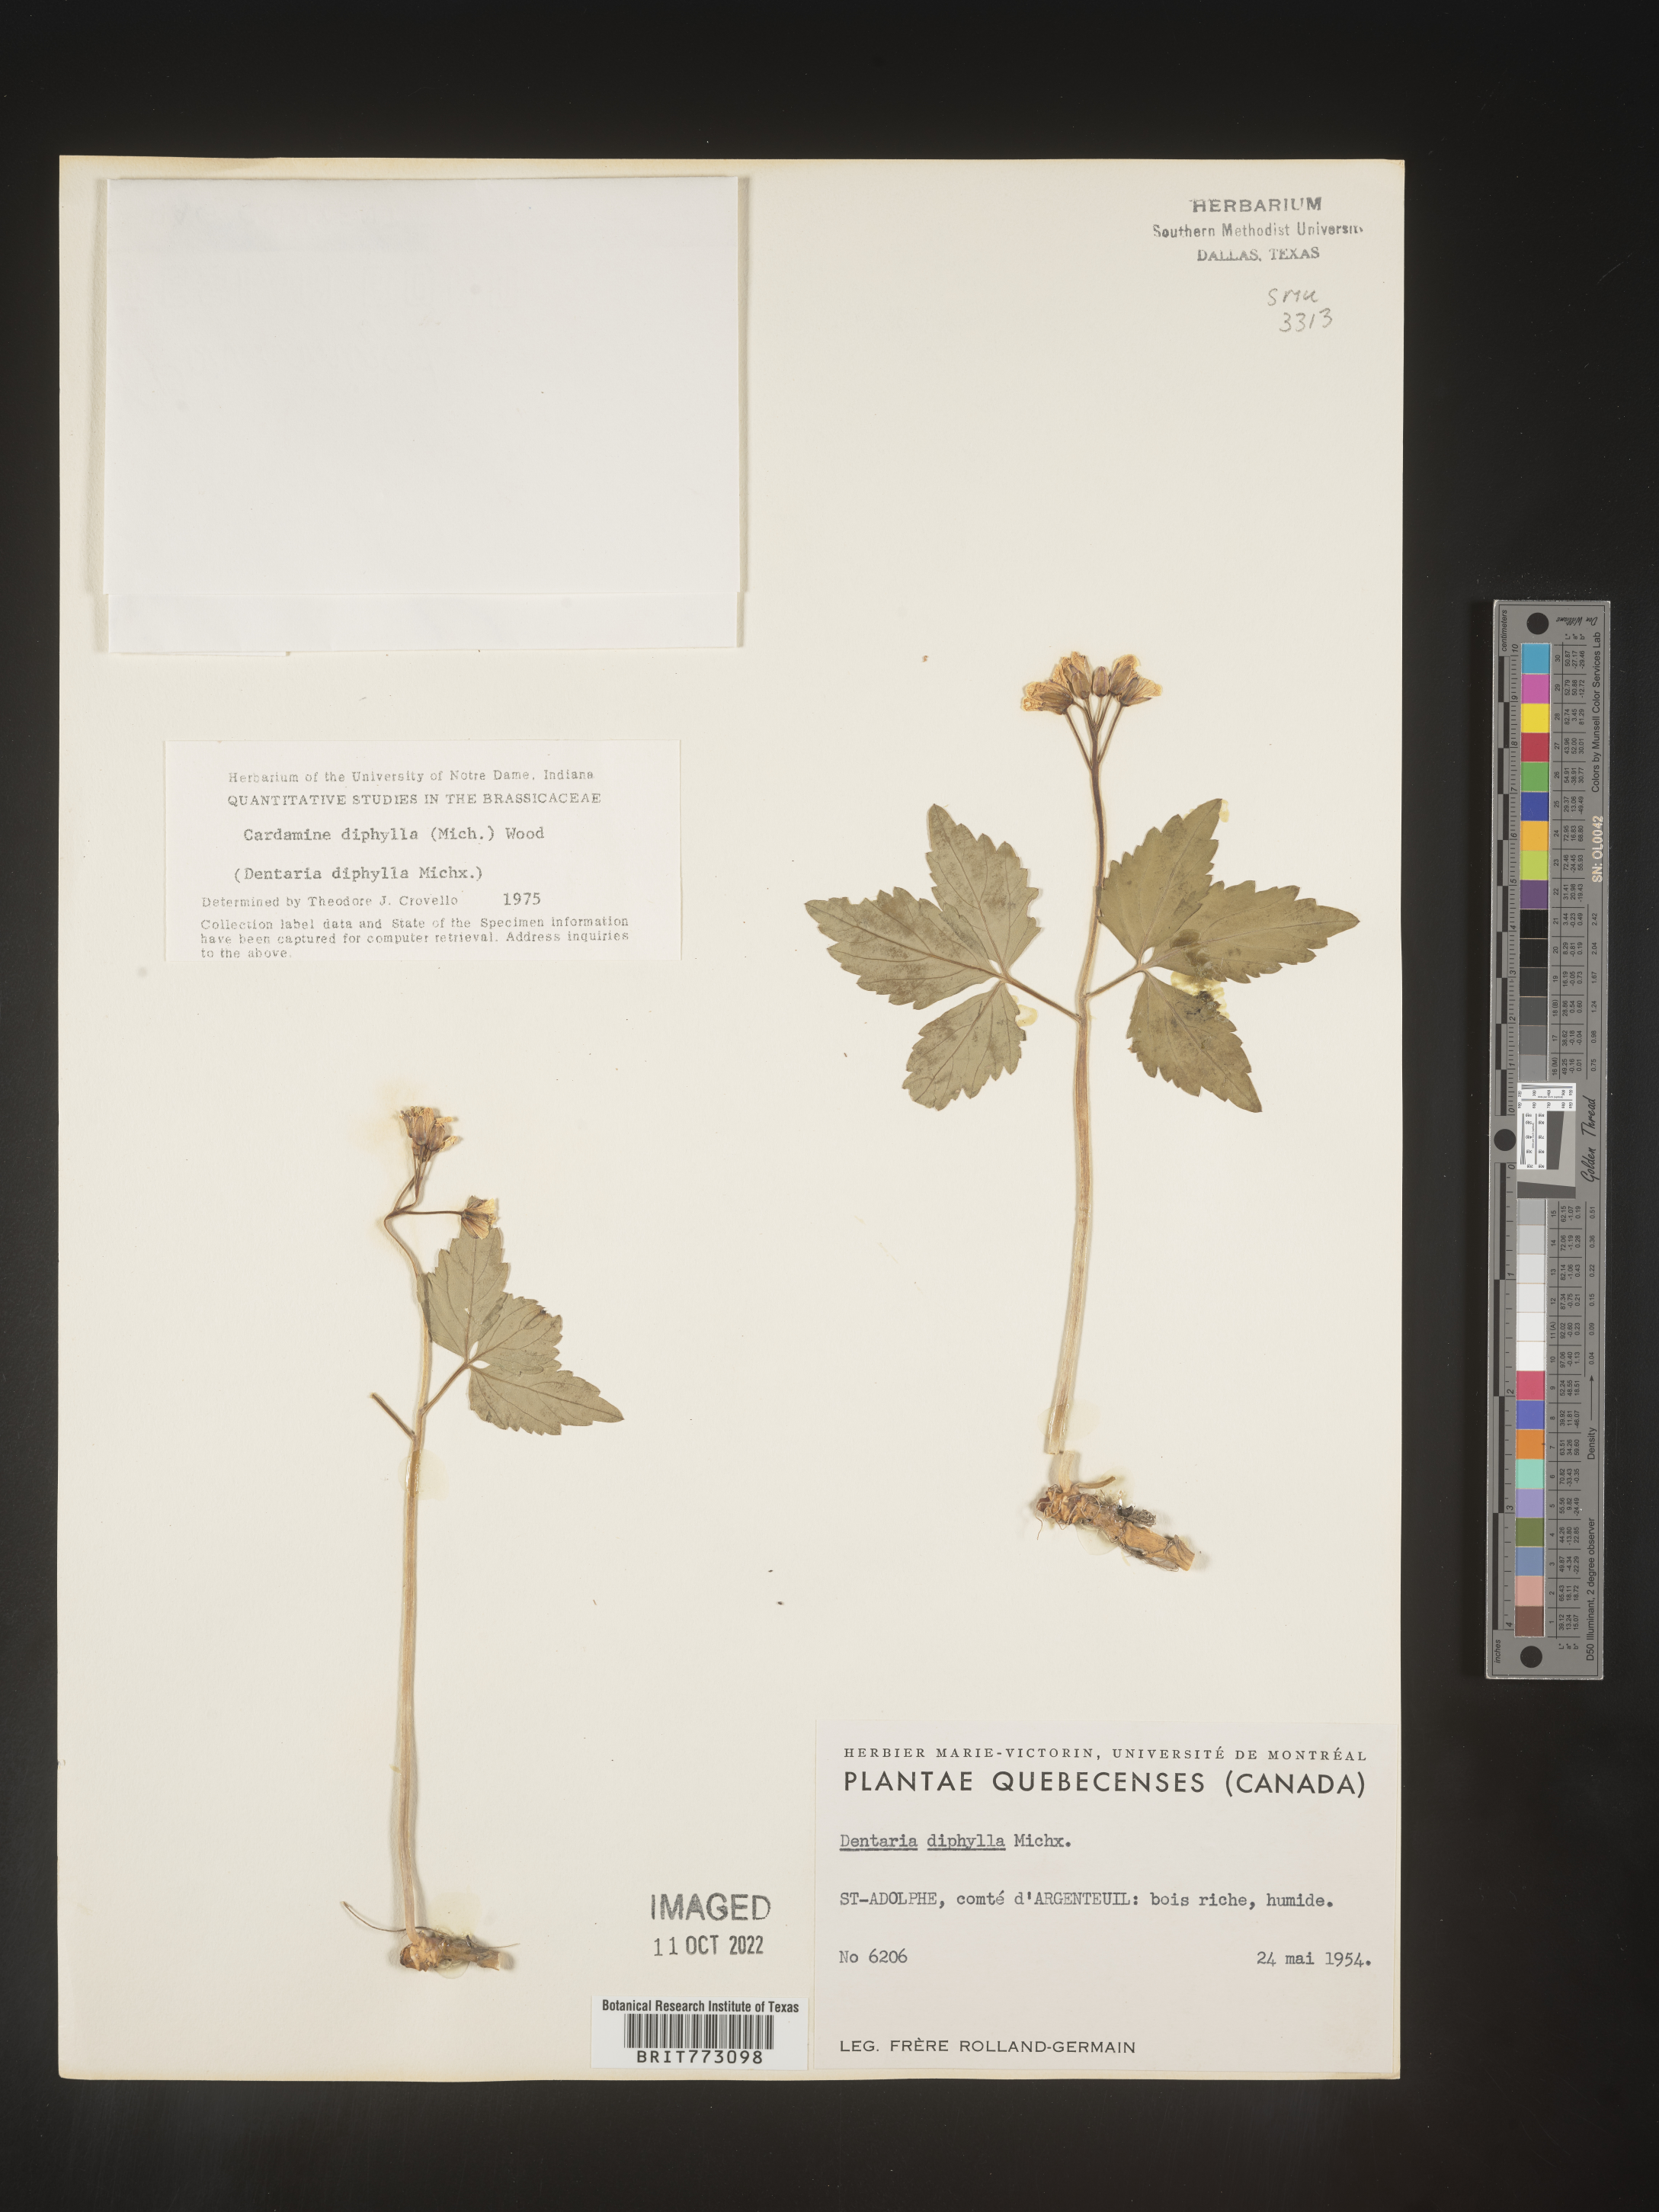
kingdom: Plantae
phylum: Tracheophyta
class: Magnoliopsida
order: Brassicales
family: Brassicaceae
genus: Cardamine
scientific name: Cardamine diphylla
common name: Broad-leaved toothwort
